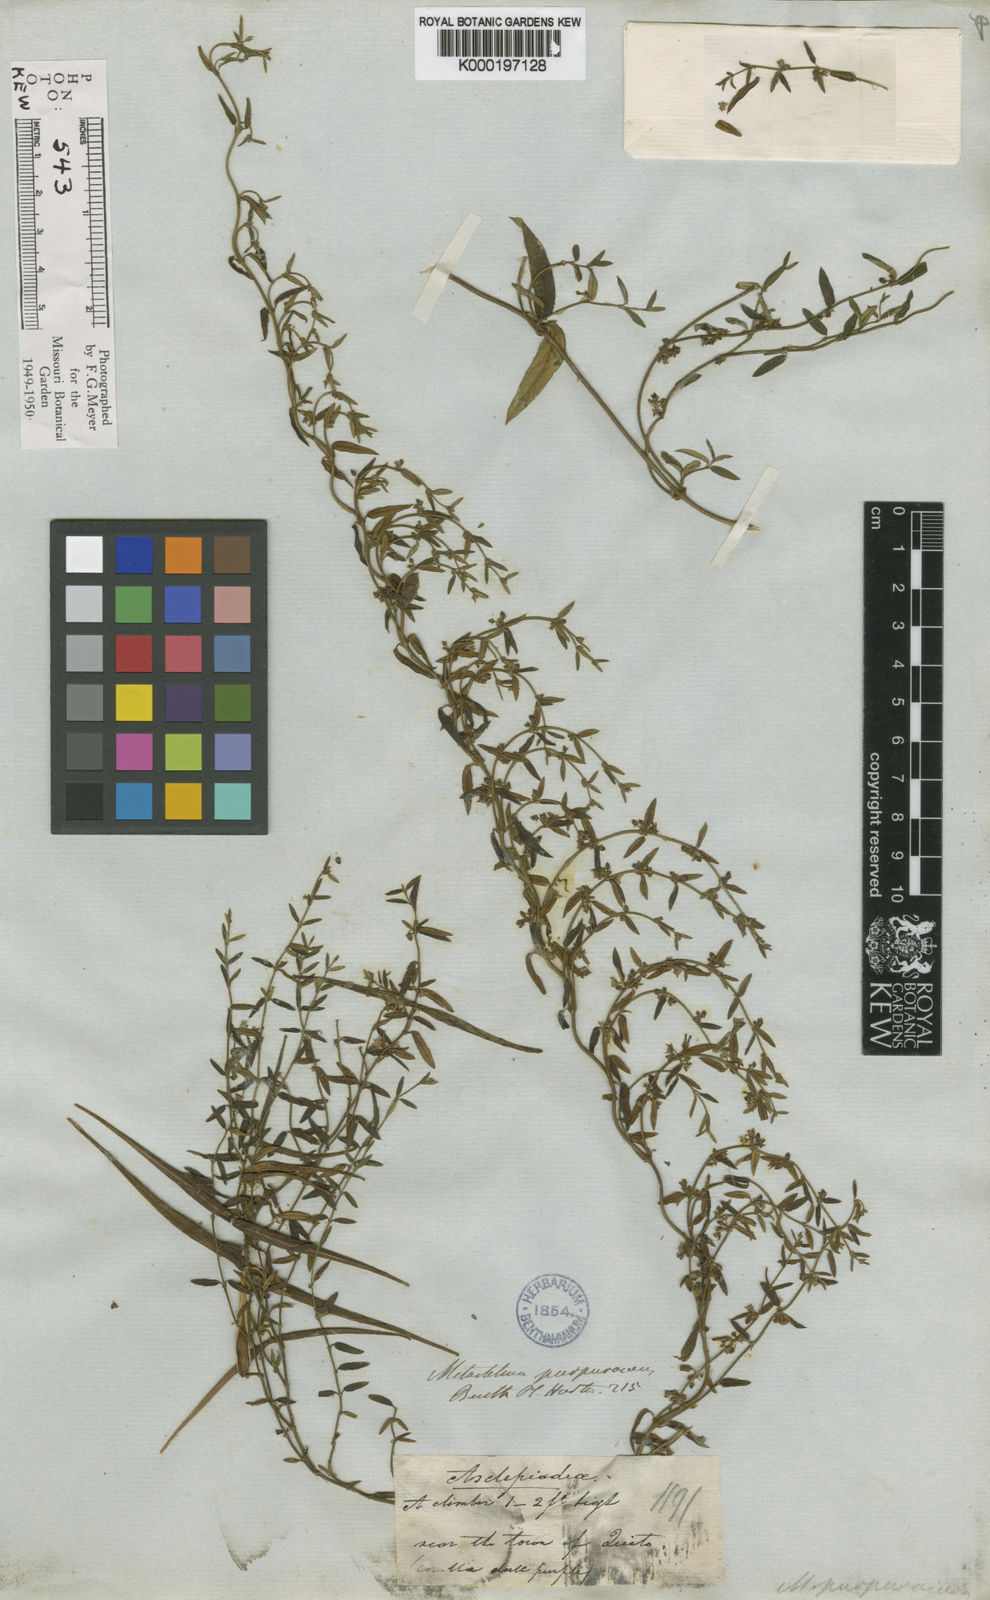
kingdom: Plantae
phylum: Tracheophyta
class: Magnoliopsida
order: Gentianales
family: Apocynaceae
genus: Metastelma
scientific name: Metastelma purpurascens
